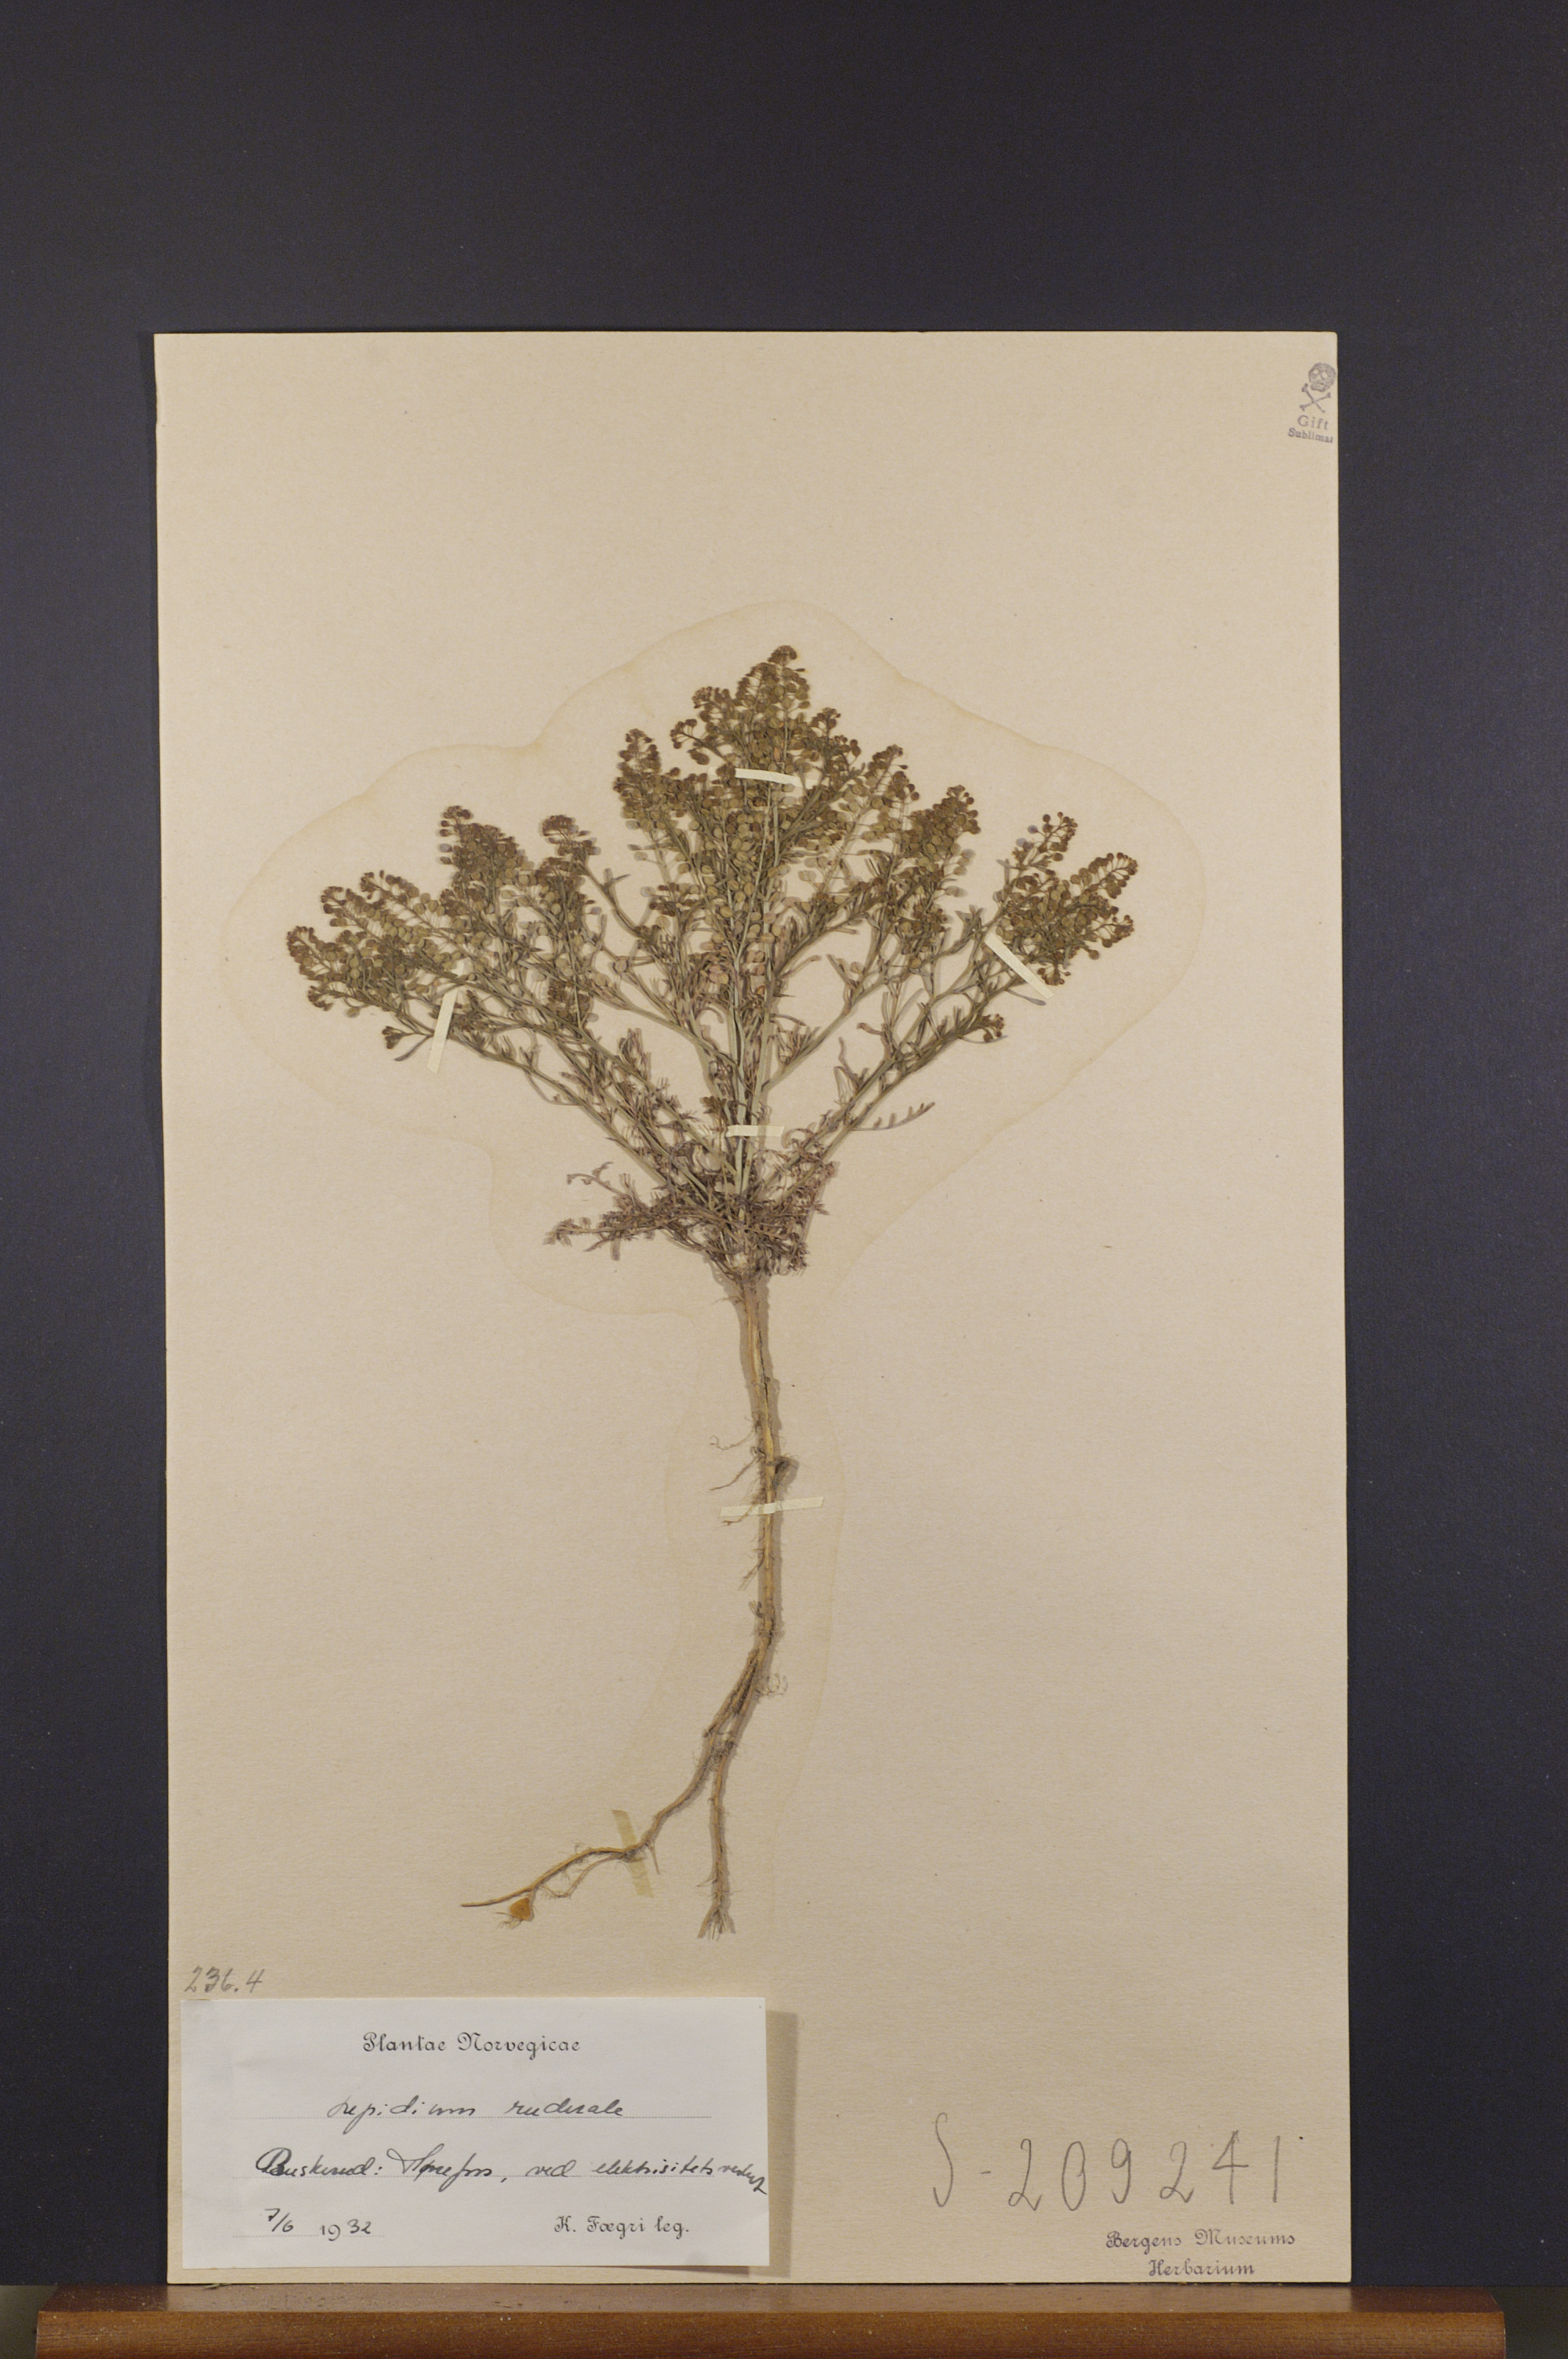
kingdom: Plantae
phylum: Tracheophyta
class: Magnoliopsida
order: Brassicales
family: Brassicaceae
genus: Lepidium
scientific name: Lepidium ruderale
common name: Narrow-leaved pepperwort
